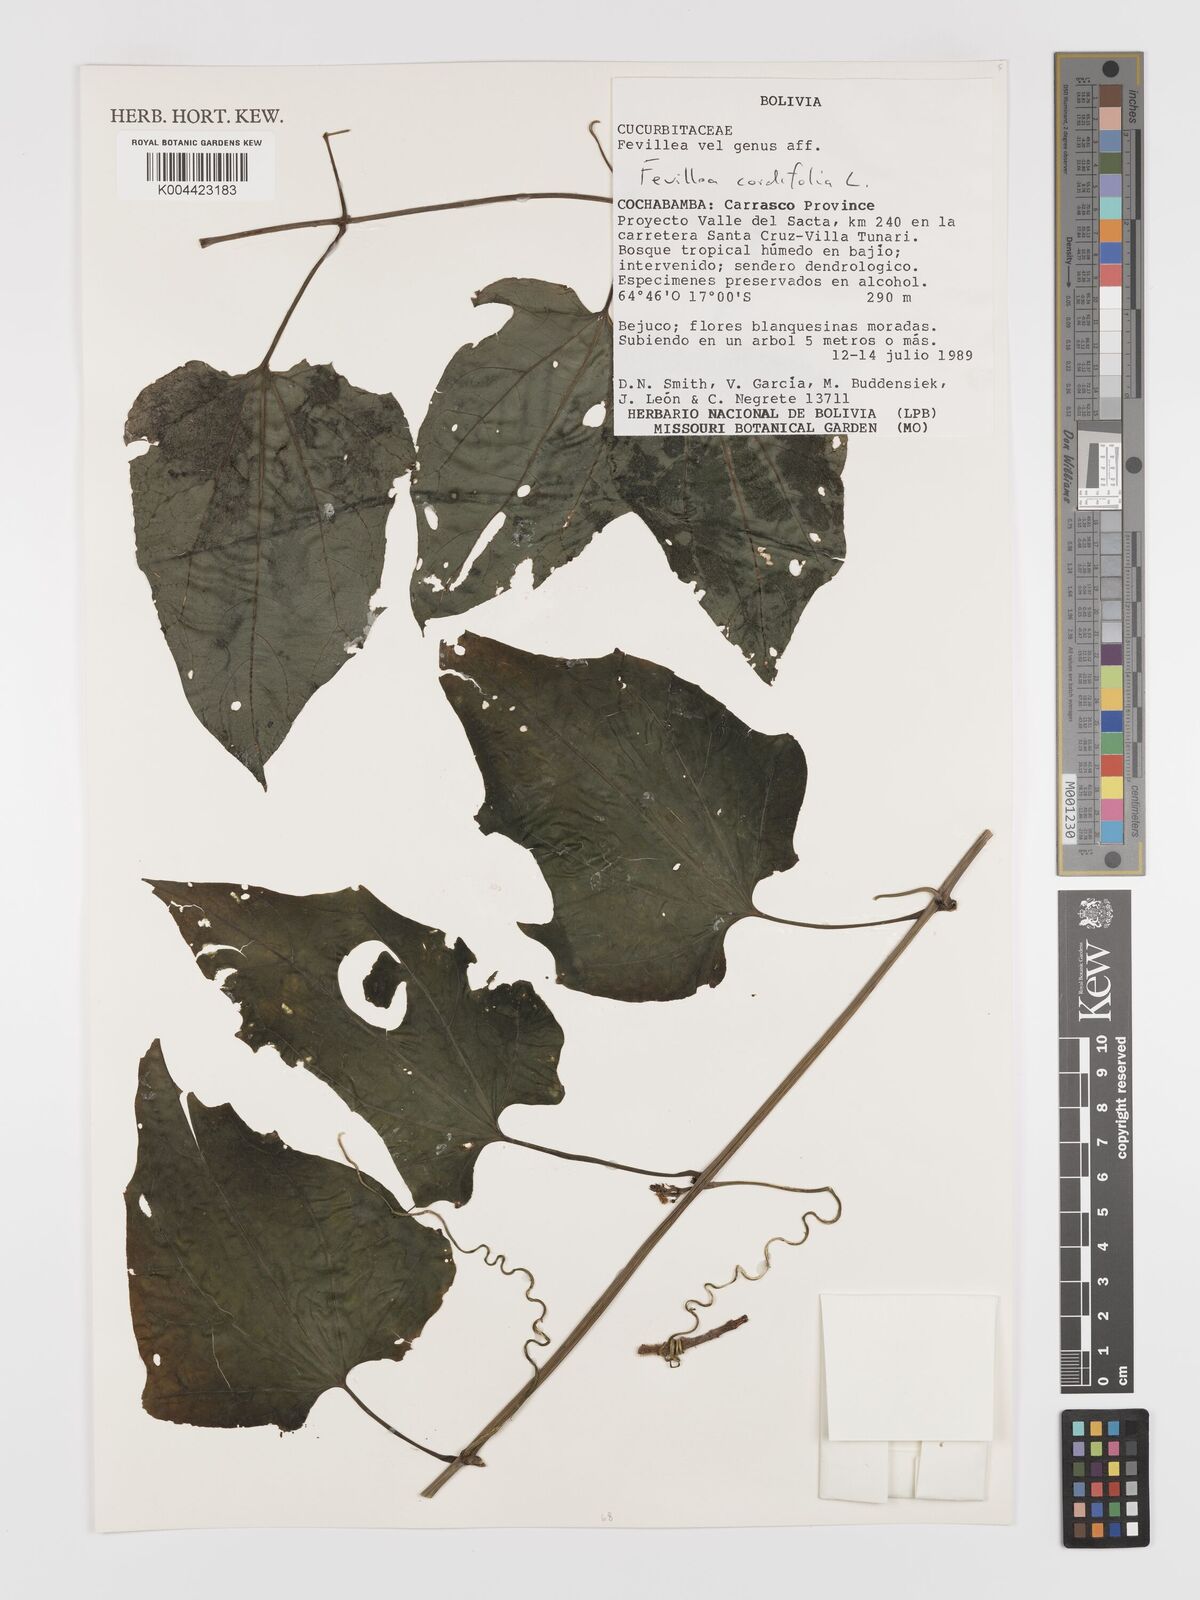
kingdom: Plantae
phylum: Tracheophyta
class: Magnoliopsida
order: Cucurbitales
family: Cucurbitaceae
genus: Fevillea
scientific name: Fevillea
